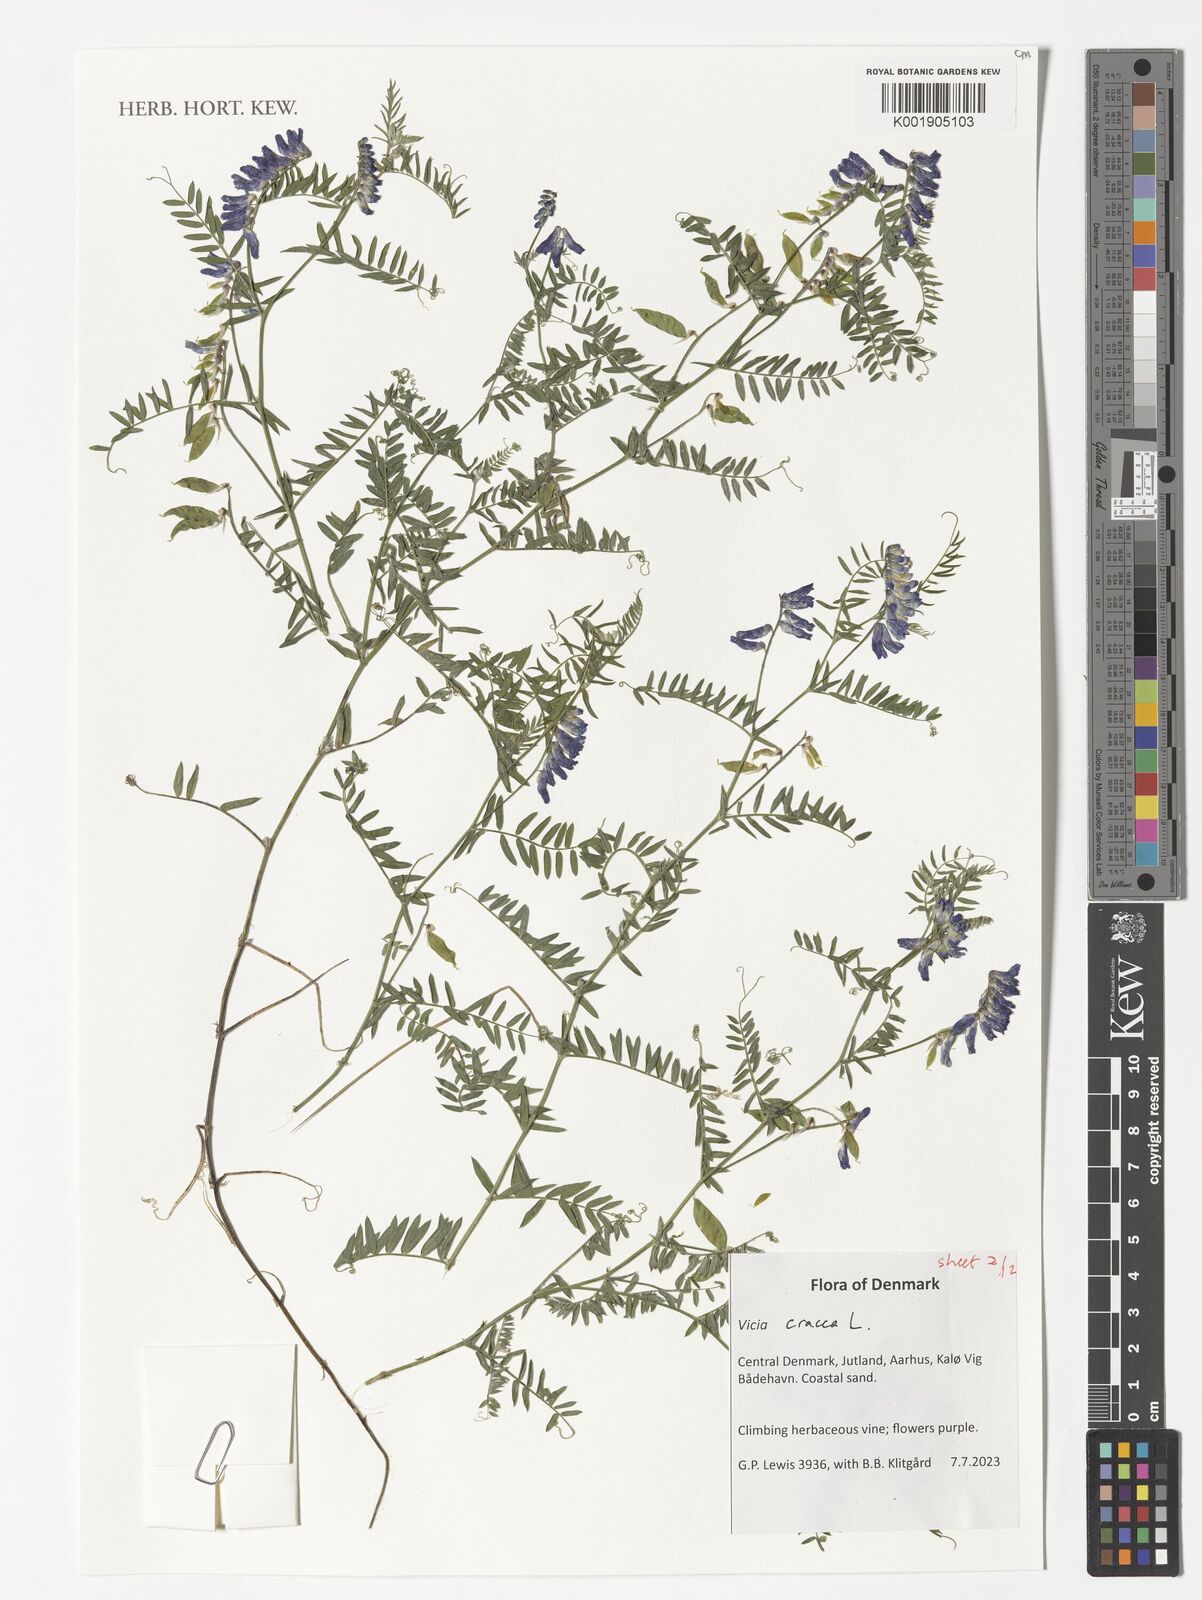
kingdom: Plantae
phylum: Tracheophyta
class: Magnoliopsida
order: Fabales
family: Fabaceae
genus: Vicia
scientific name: Vicia cracca
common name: Bird vetch
